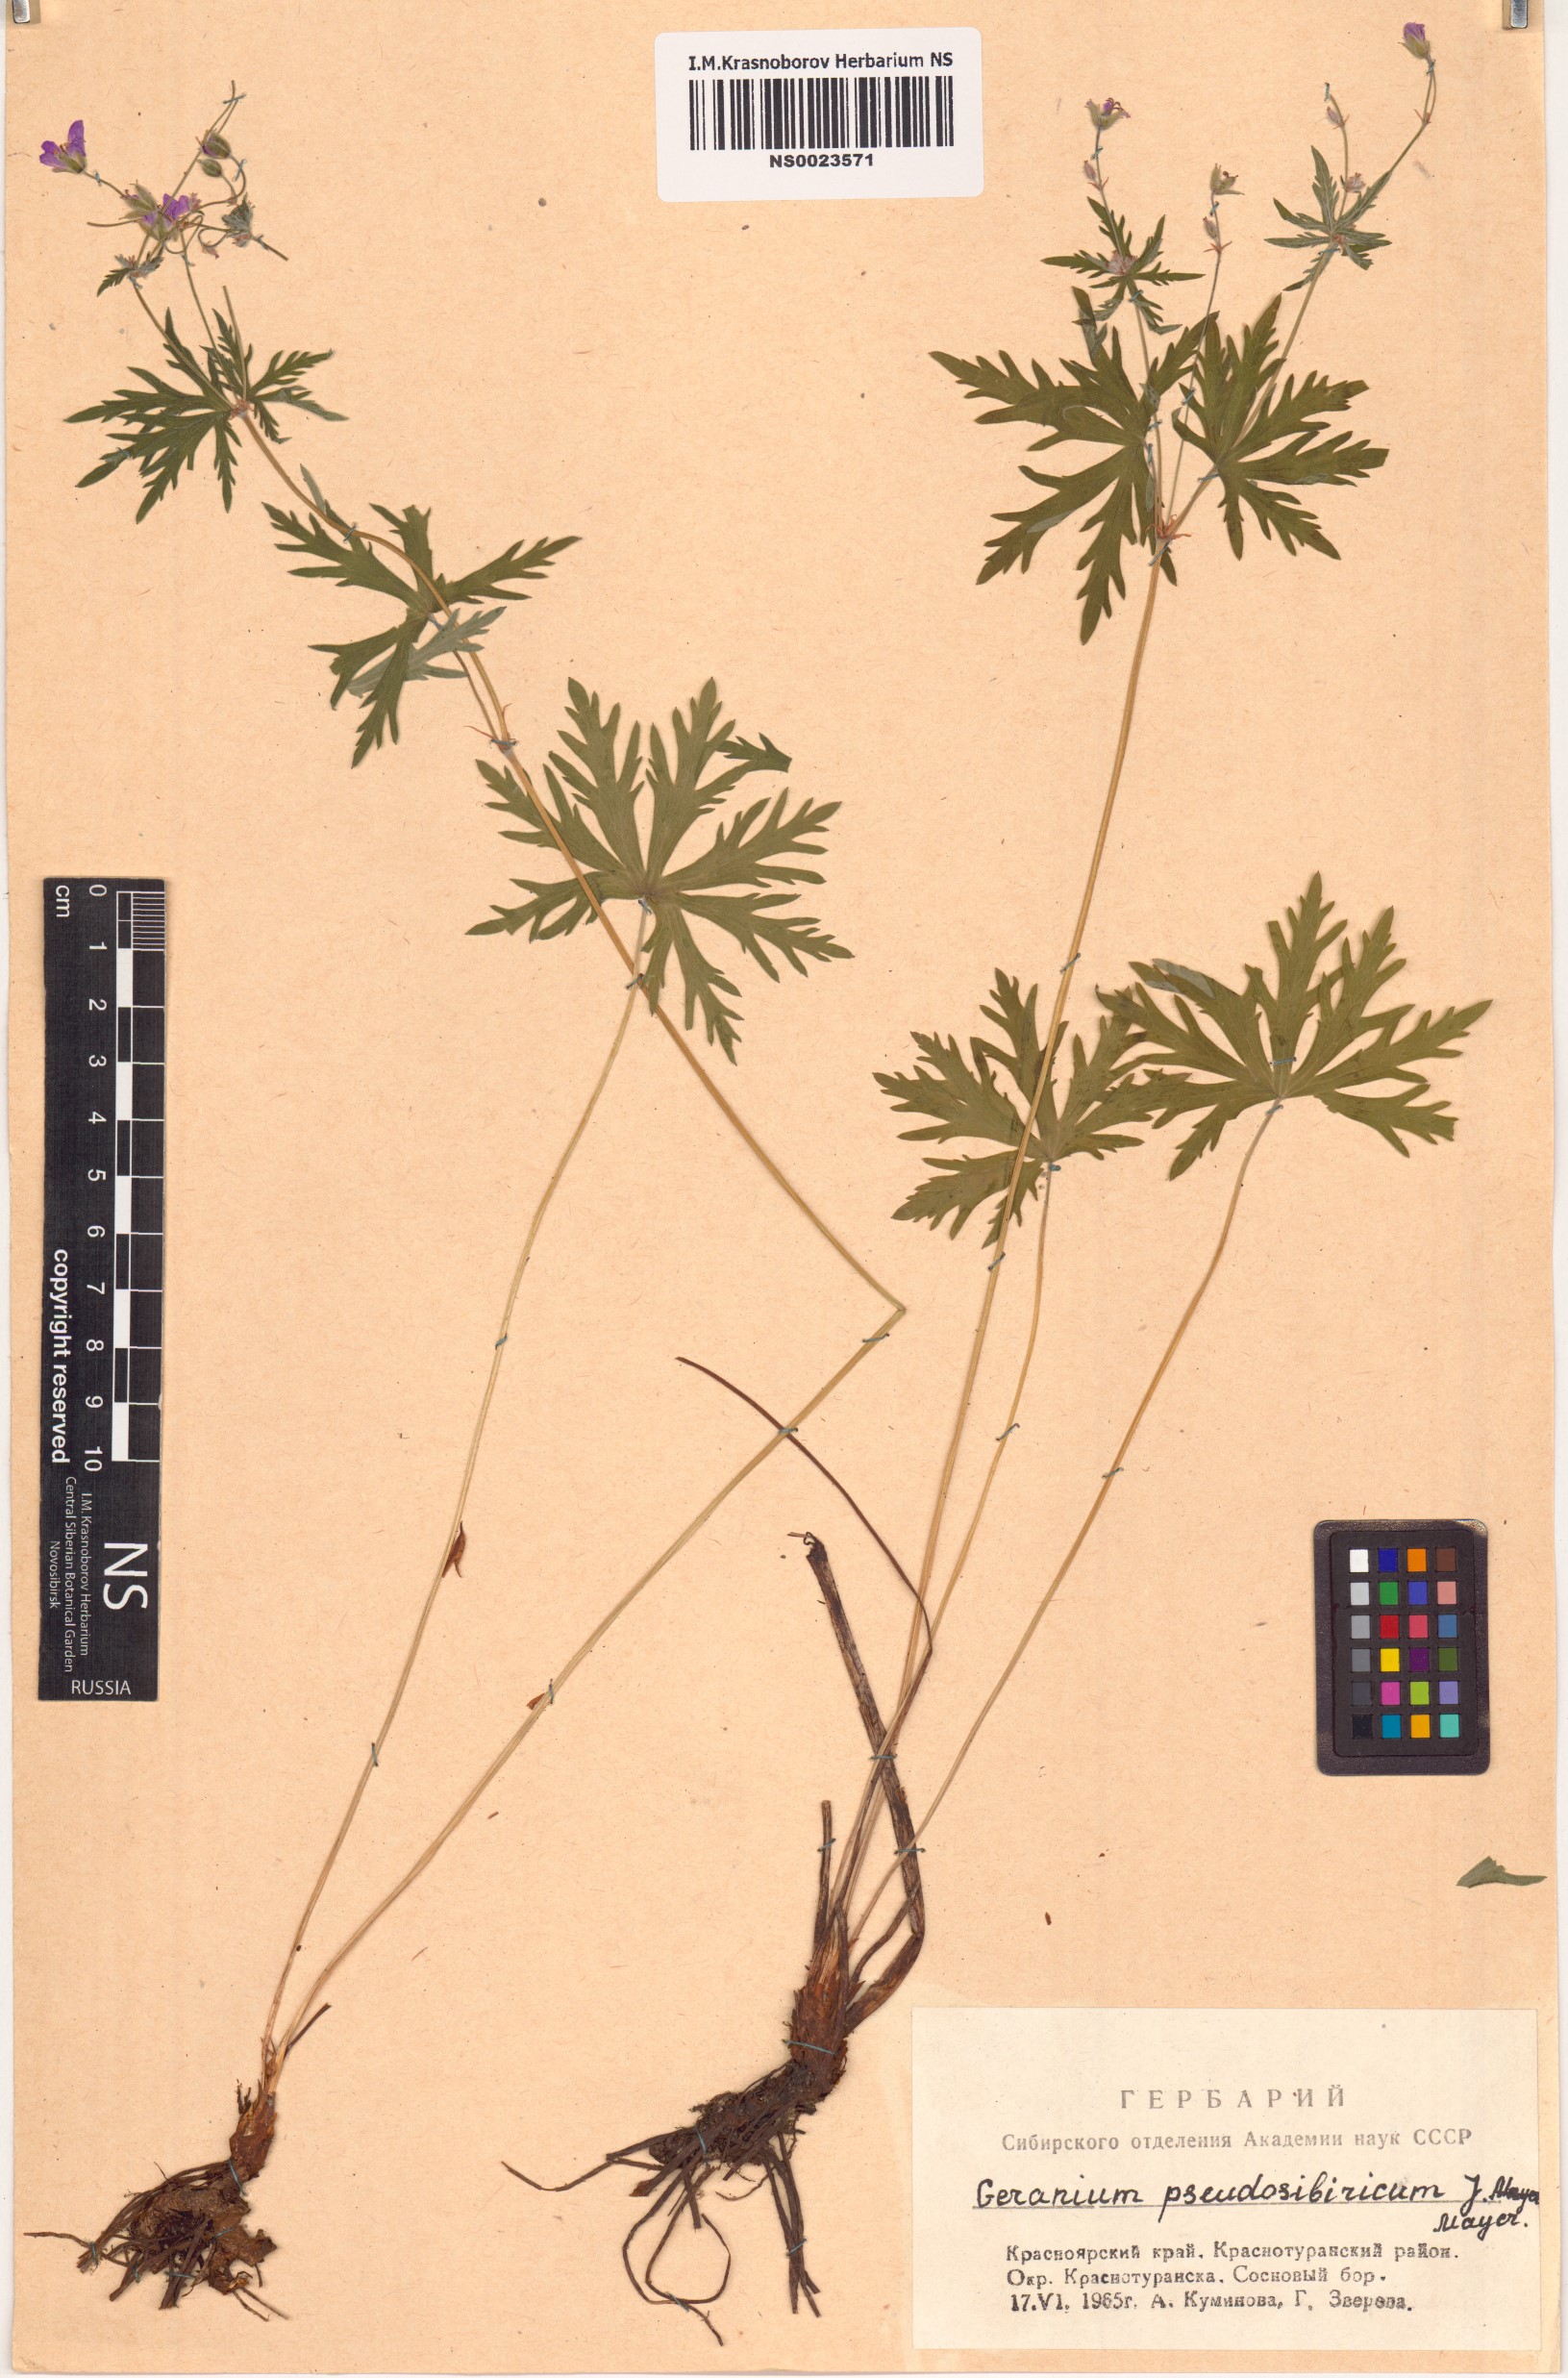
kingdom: Plantae
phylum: Tracheophyta
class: Magnoliopsida
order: Geraniales
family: Geraniaceae
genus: Geranium
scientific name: Geranium pseudosibiricum
